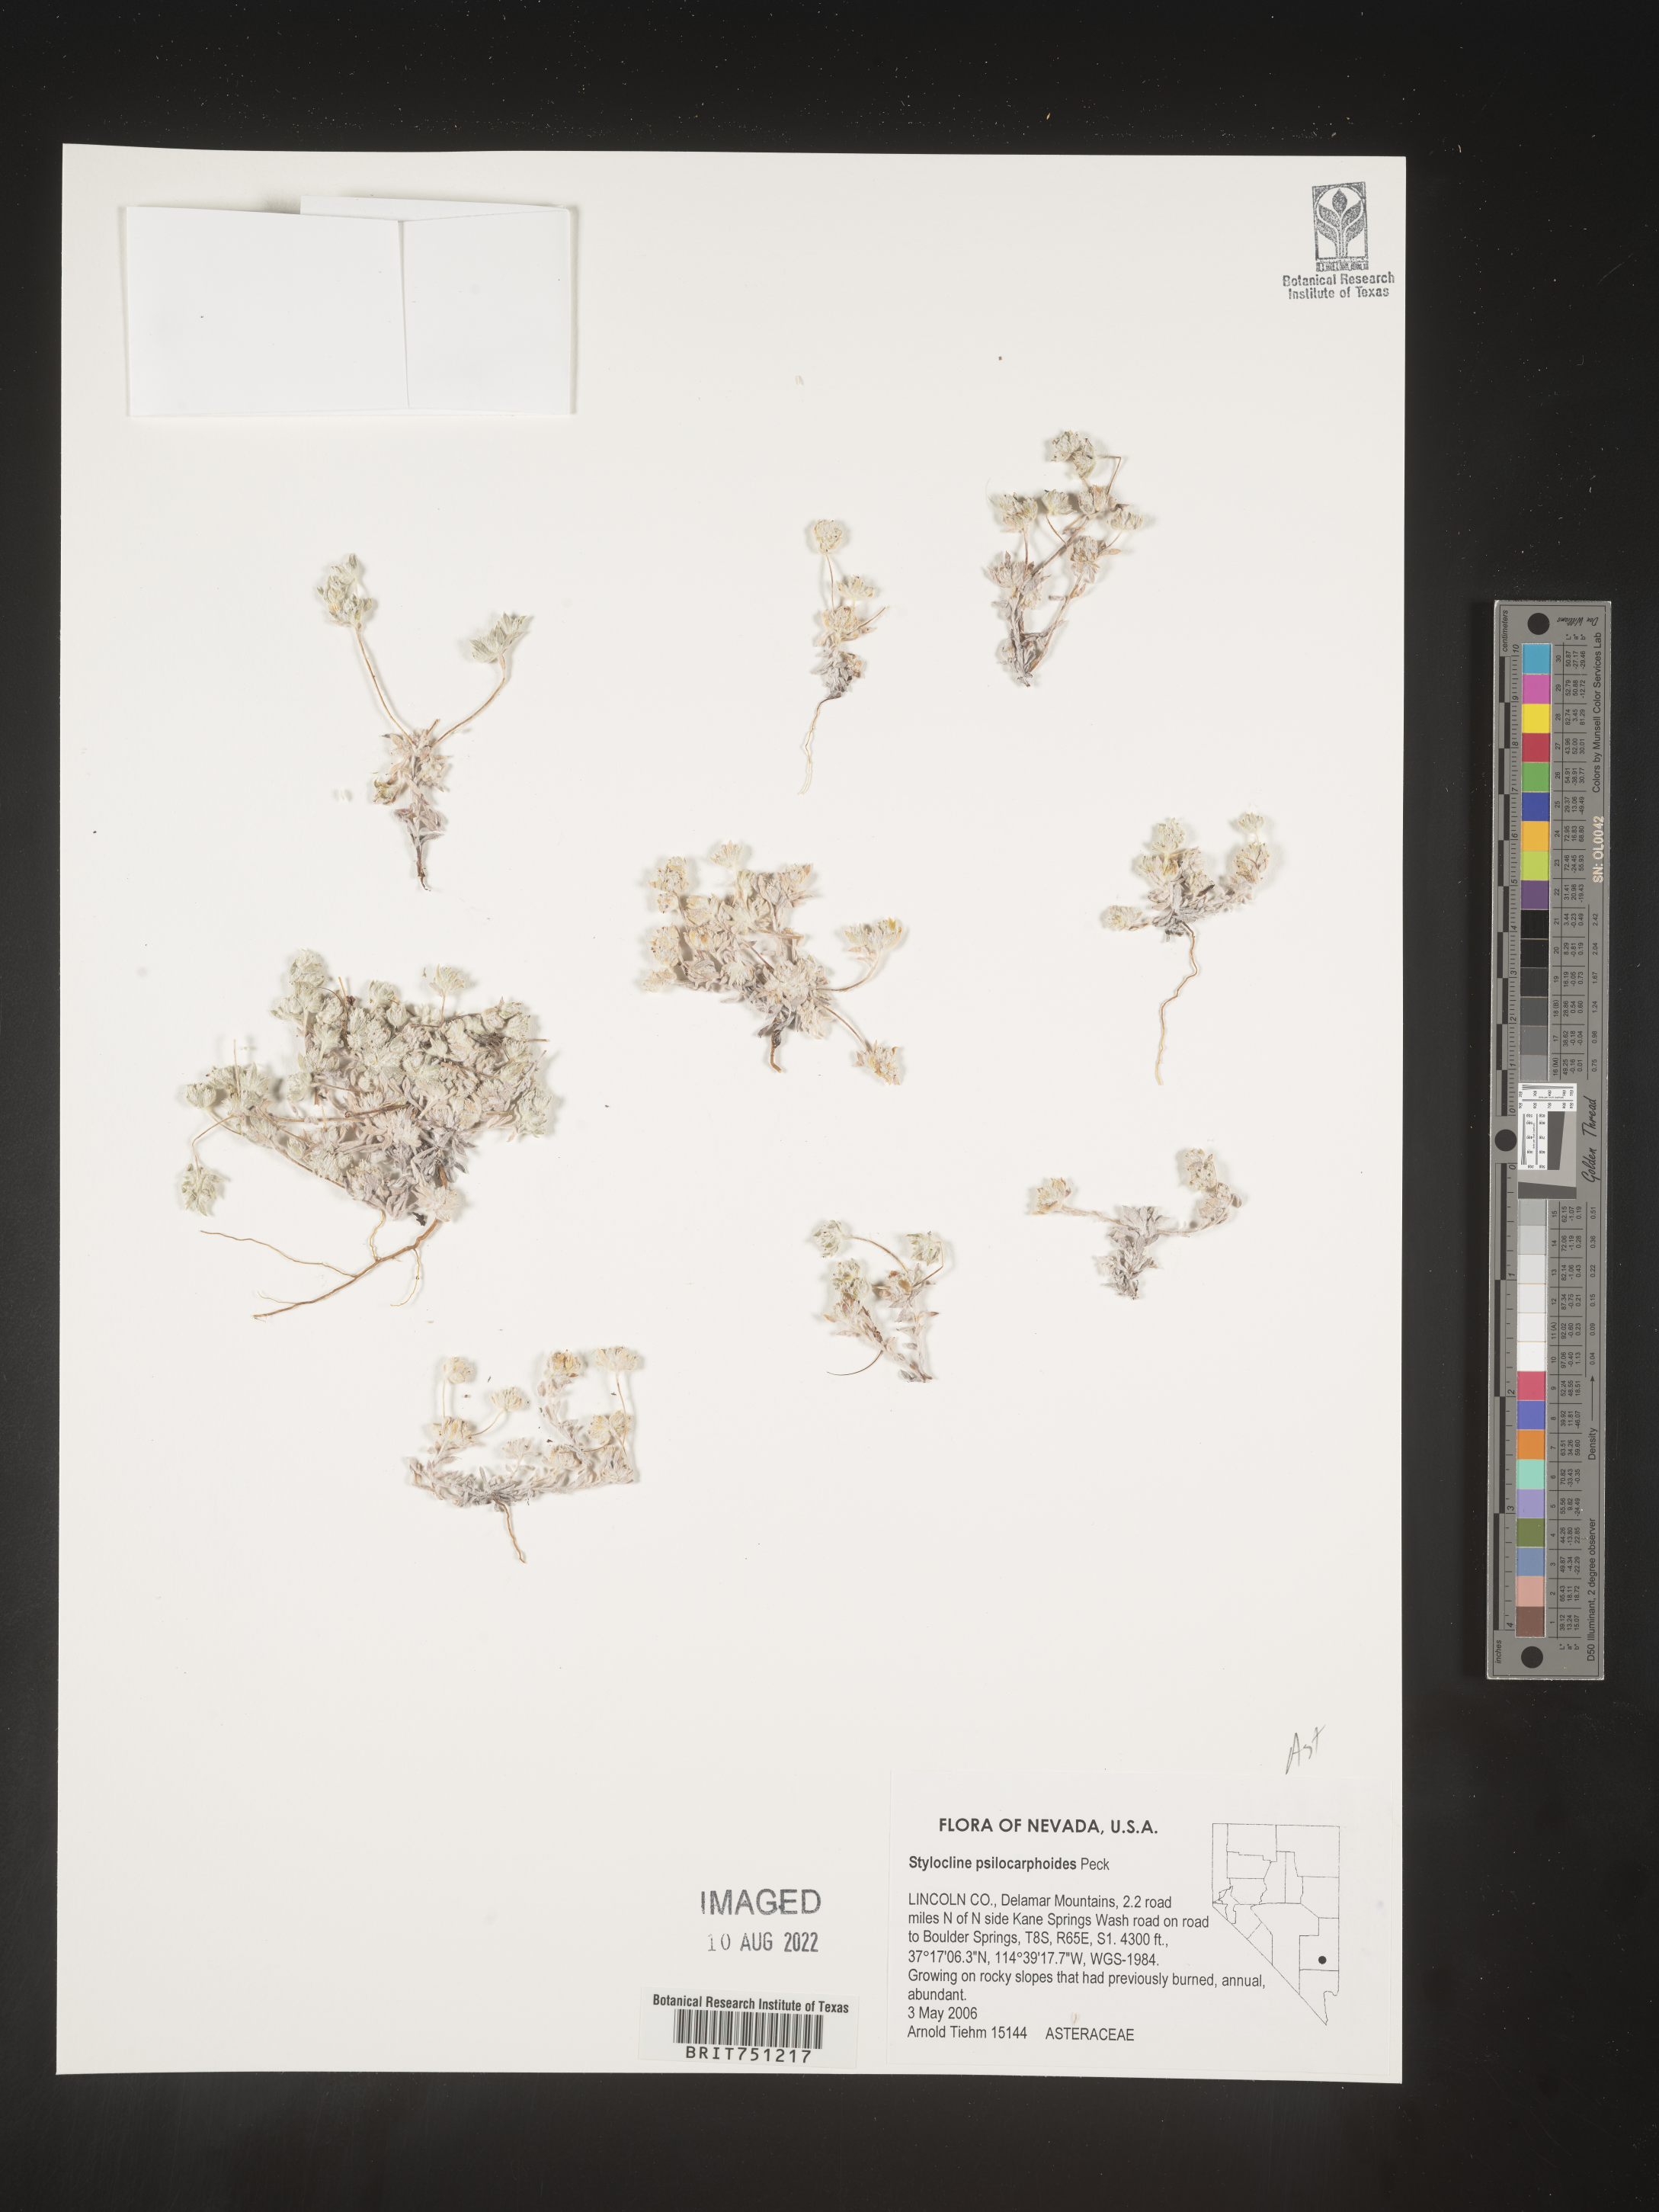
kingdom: Plantae
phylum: Tracheophyta
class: Magnoliopsida
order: Asterales
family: Asteraceae
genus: Stylocline
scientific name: Stylocline
